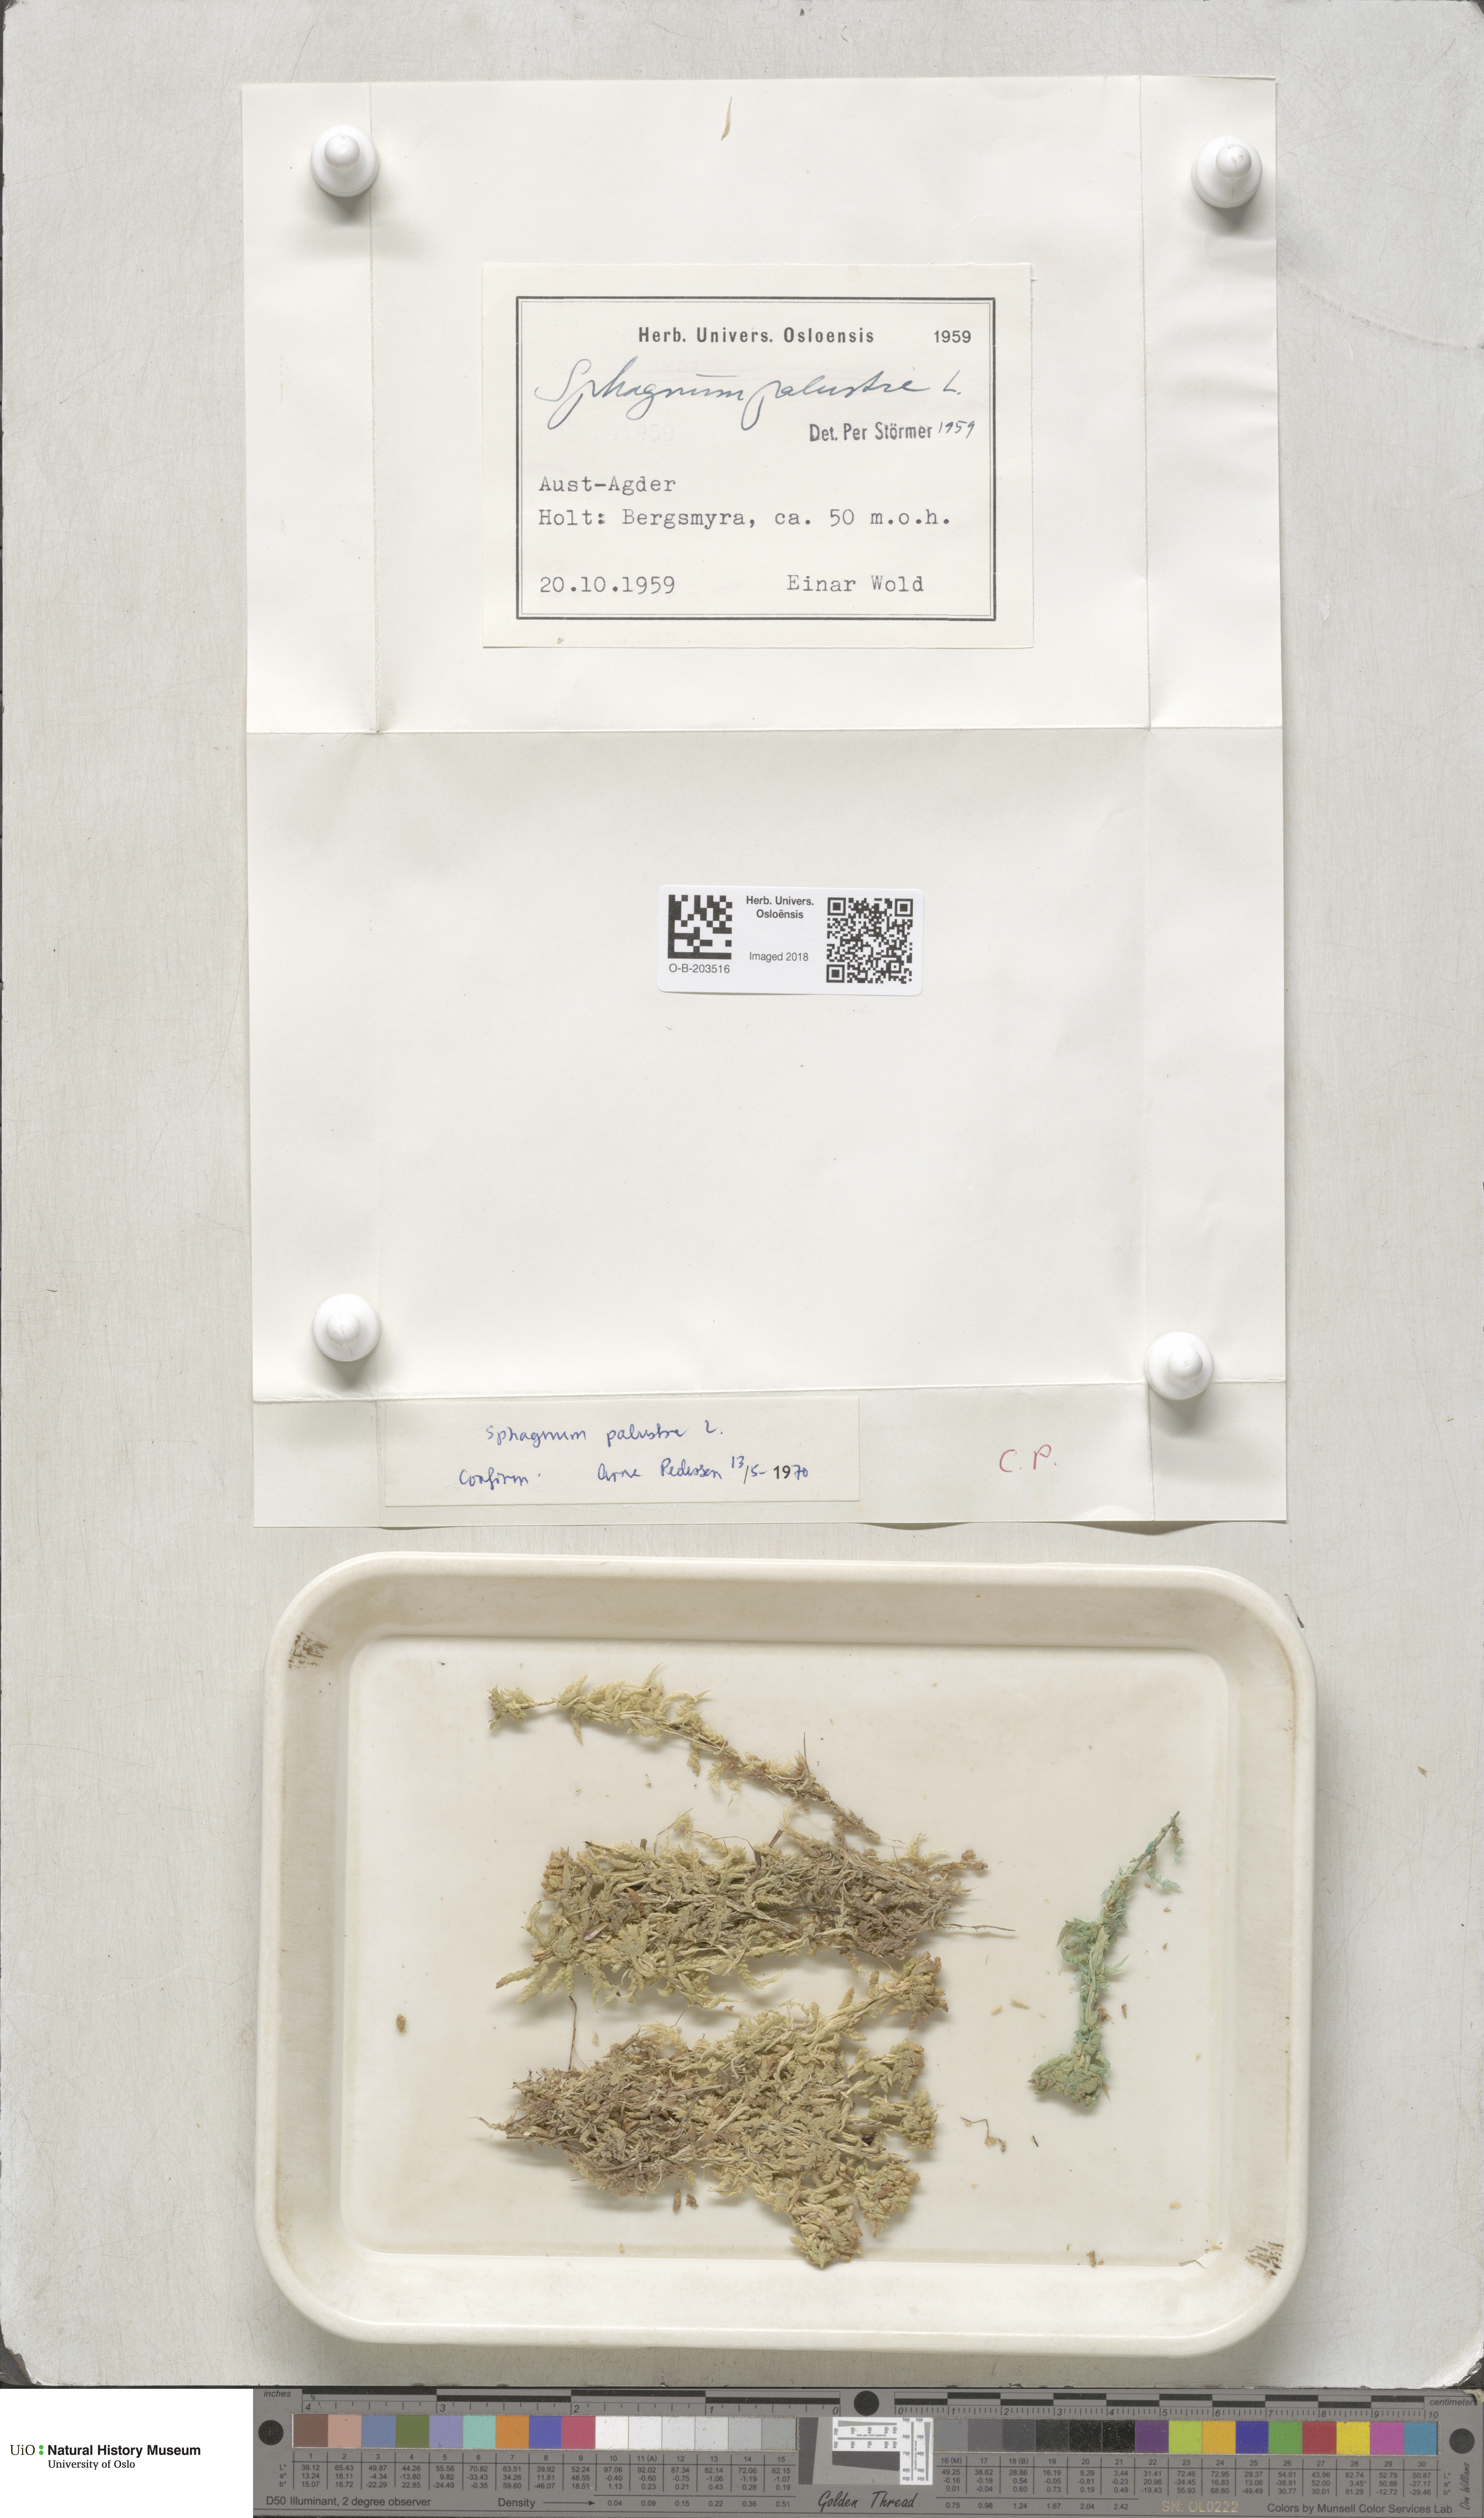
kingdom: Plantae
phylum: Bryophyta
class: Sphagnopsida
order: Sphagnales
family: Sphagnaceae
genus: Sphagnum
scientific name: Sphagnum palustre
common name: Blunt-leaved bog-moss
